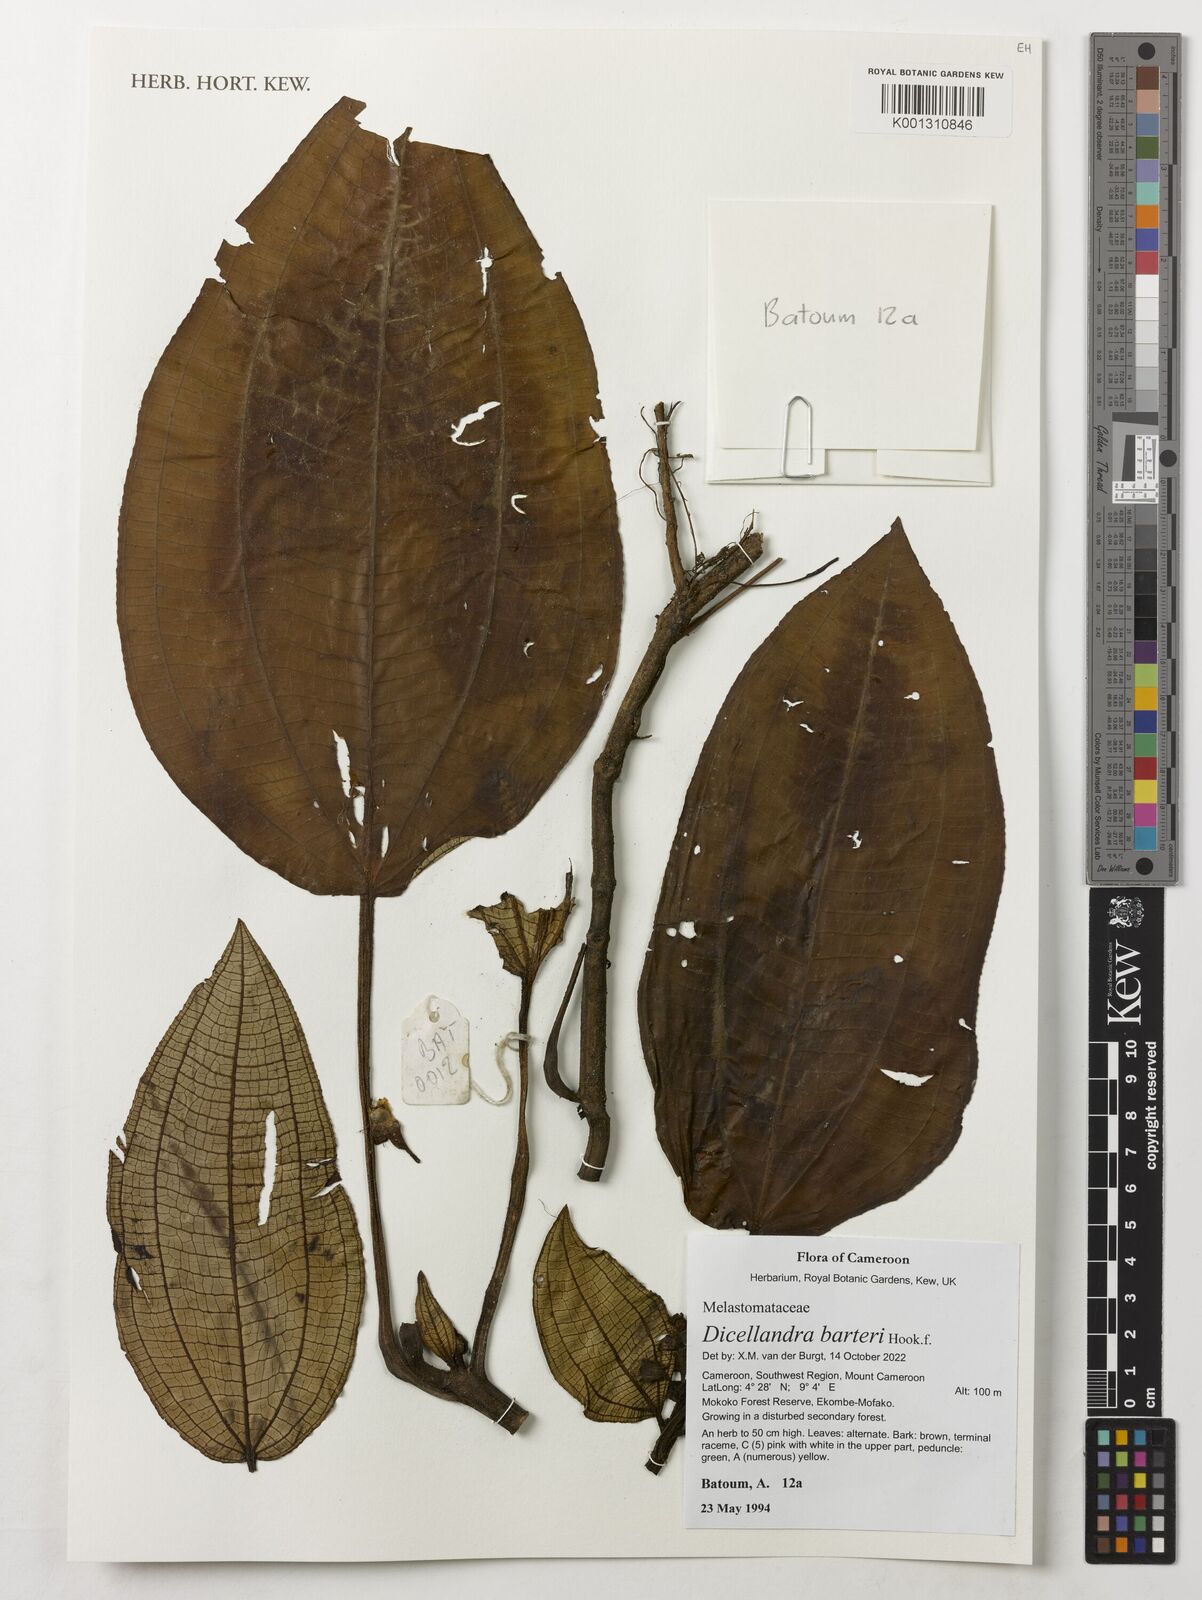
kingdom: Plantae
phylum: Tracheophyta
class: Magnoliopsida
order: Myrtales
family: Melastomataceae
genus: Dicellandra
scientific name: Dicellandra barteri
